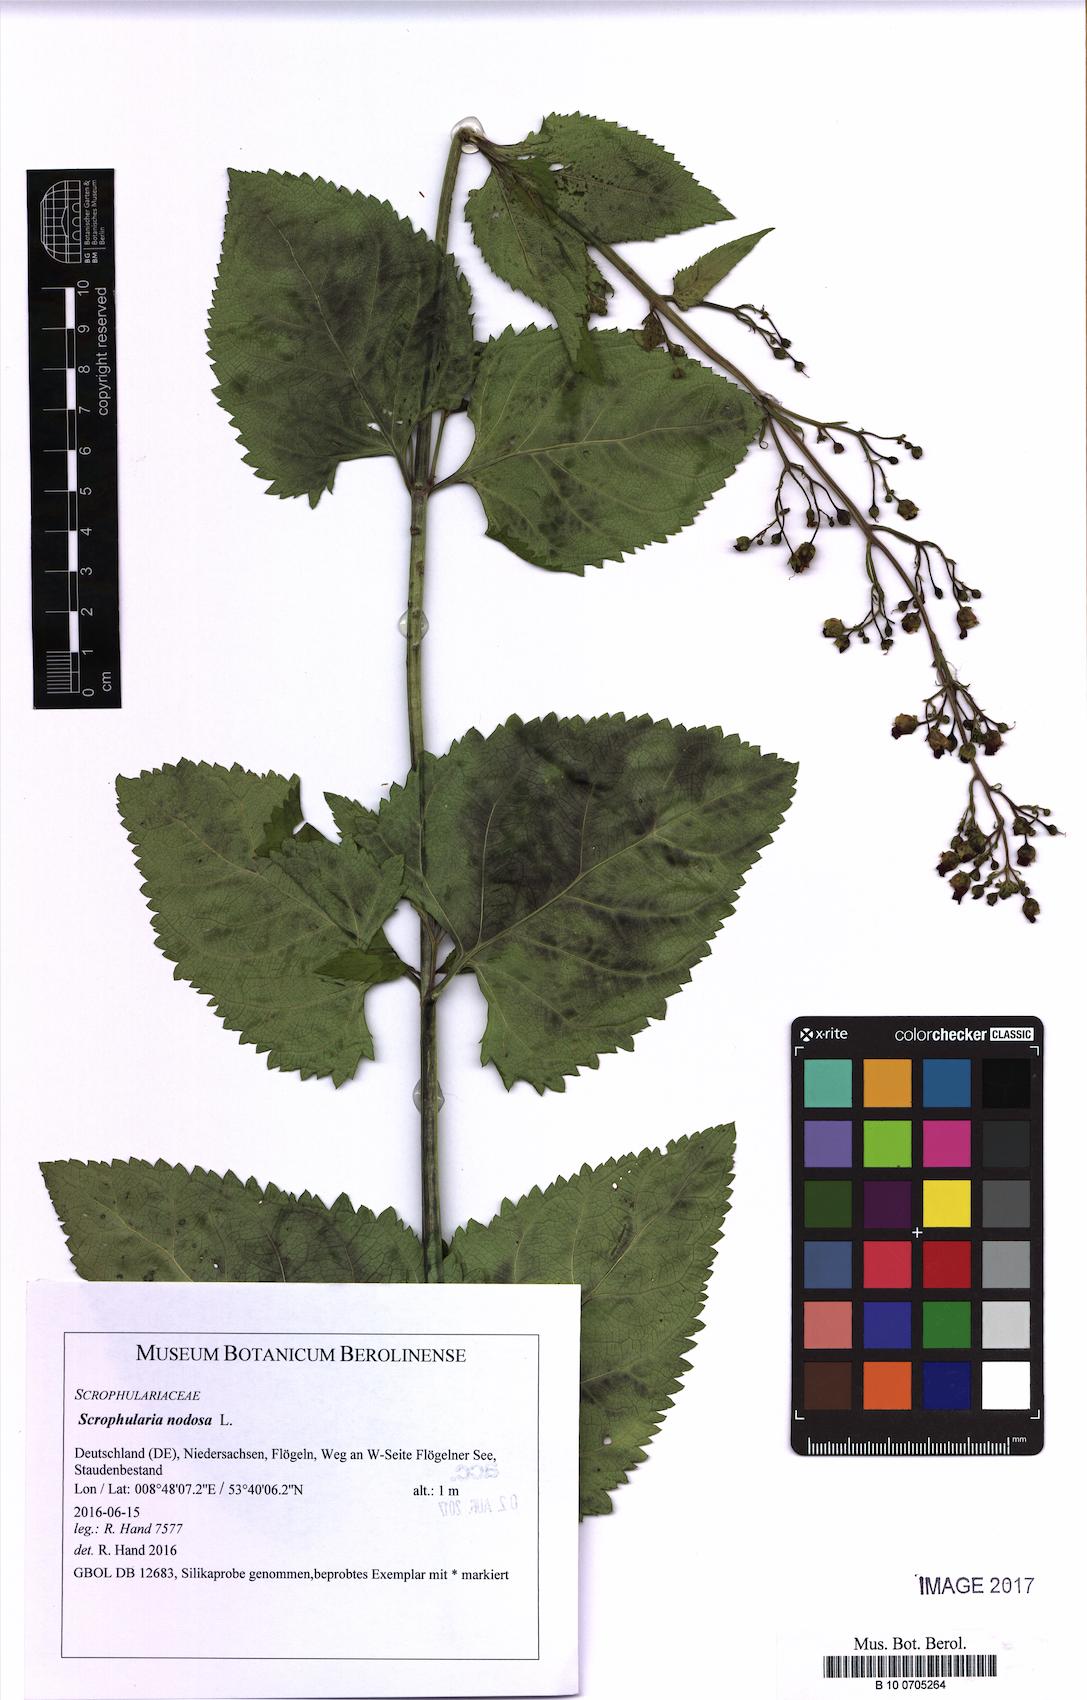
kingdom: Plantae
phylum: Tracheophyta
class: Magnoliopsida
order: Lamiales
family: Scrophulariaceae
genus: Scrophularia
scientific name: Scrophularia nodosa
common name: Common figwort
